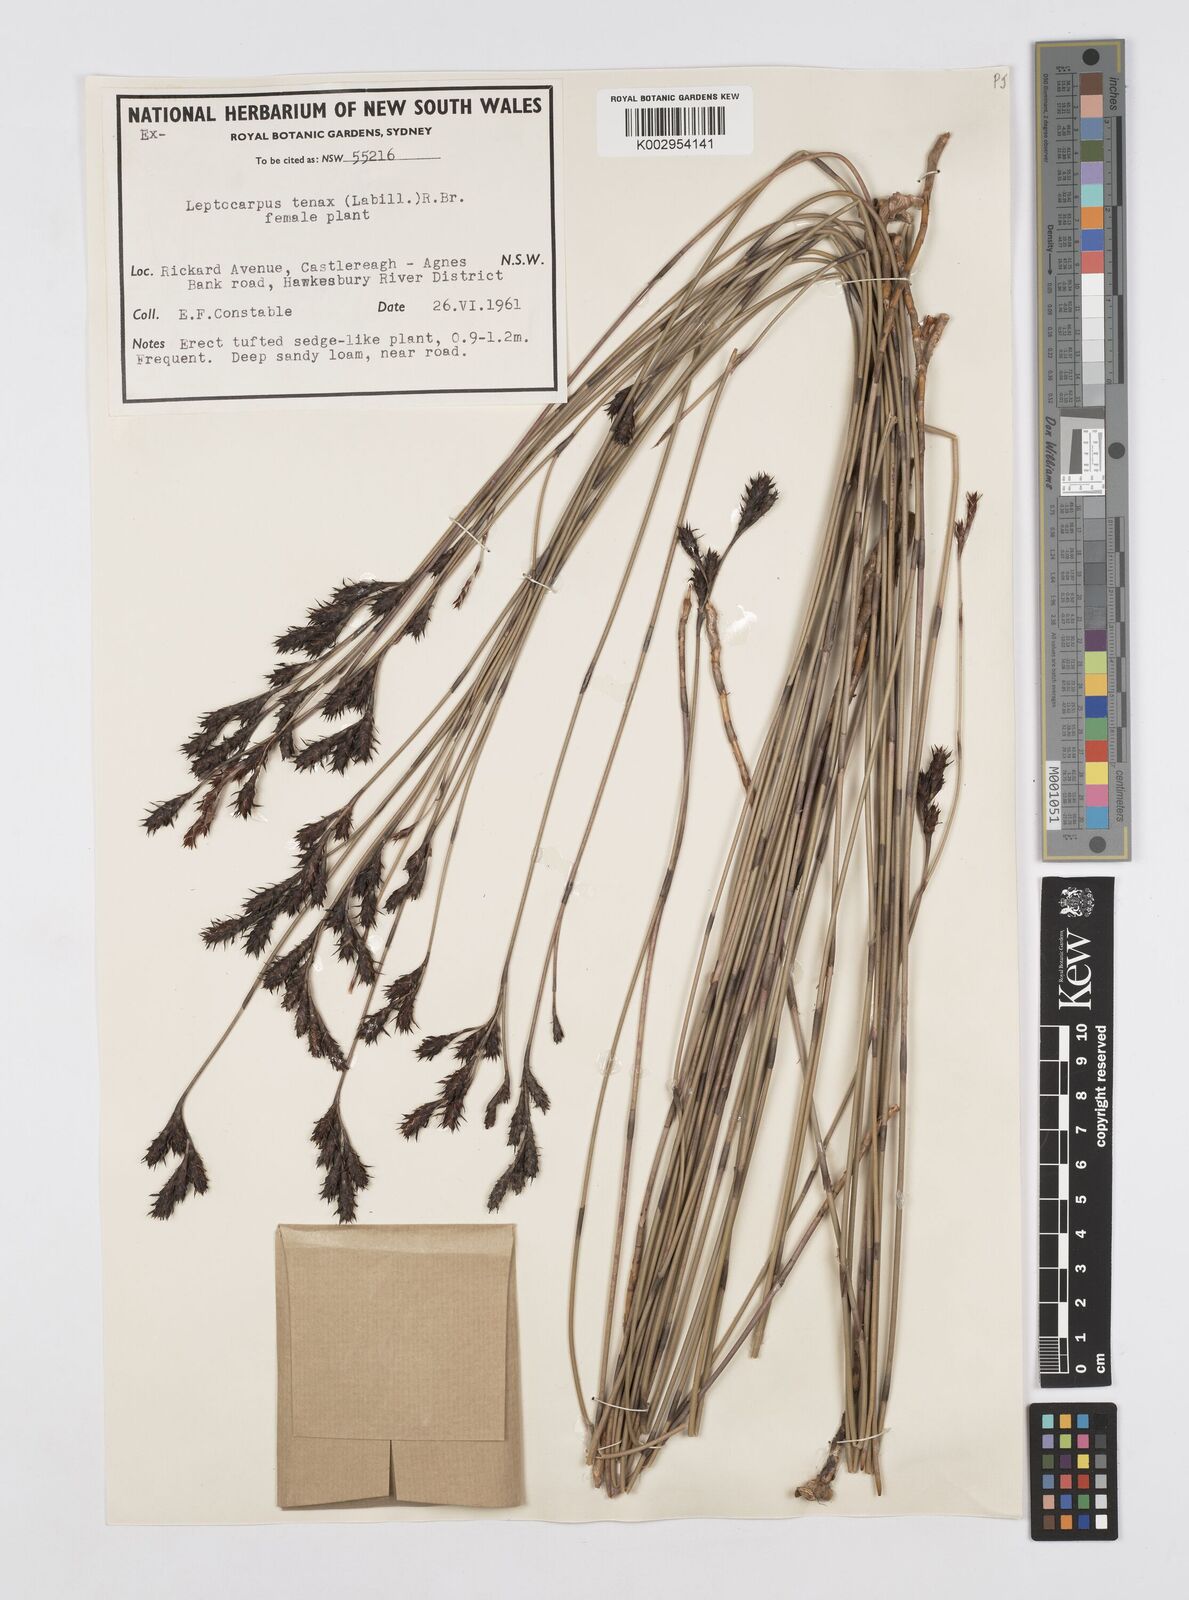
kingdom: Plantae
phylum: Tracheophyta
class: Liliopsida
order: Poales
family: Restionaceae
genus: Leptocarpus
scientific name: Leptocarpus tenax
